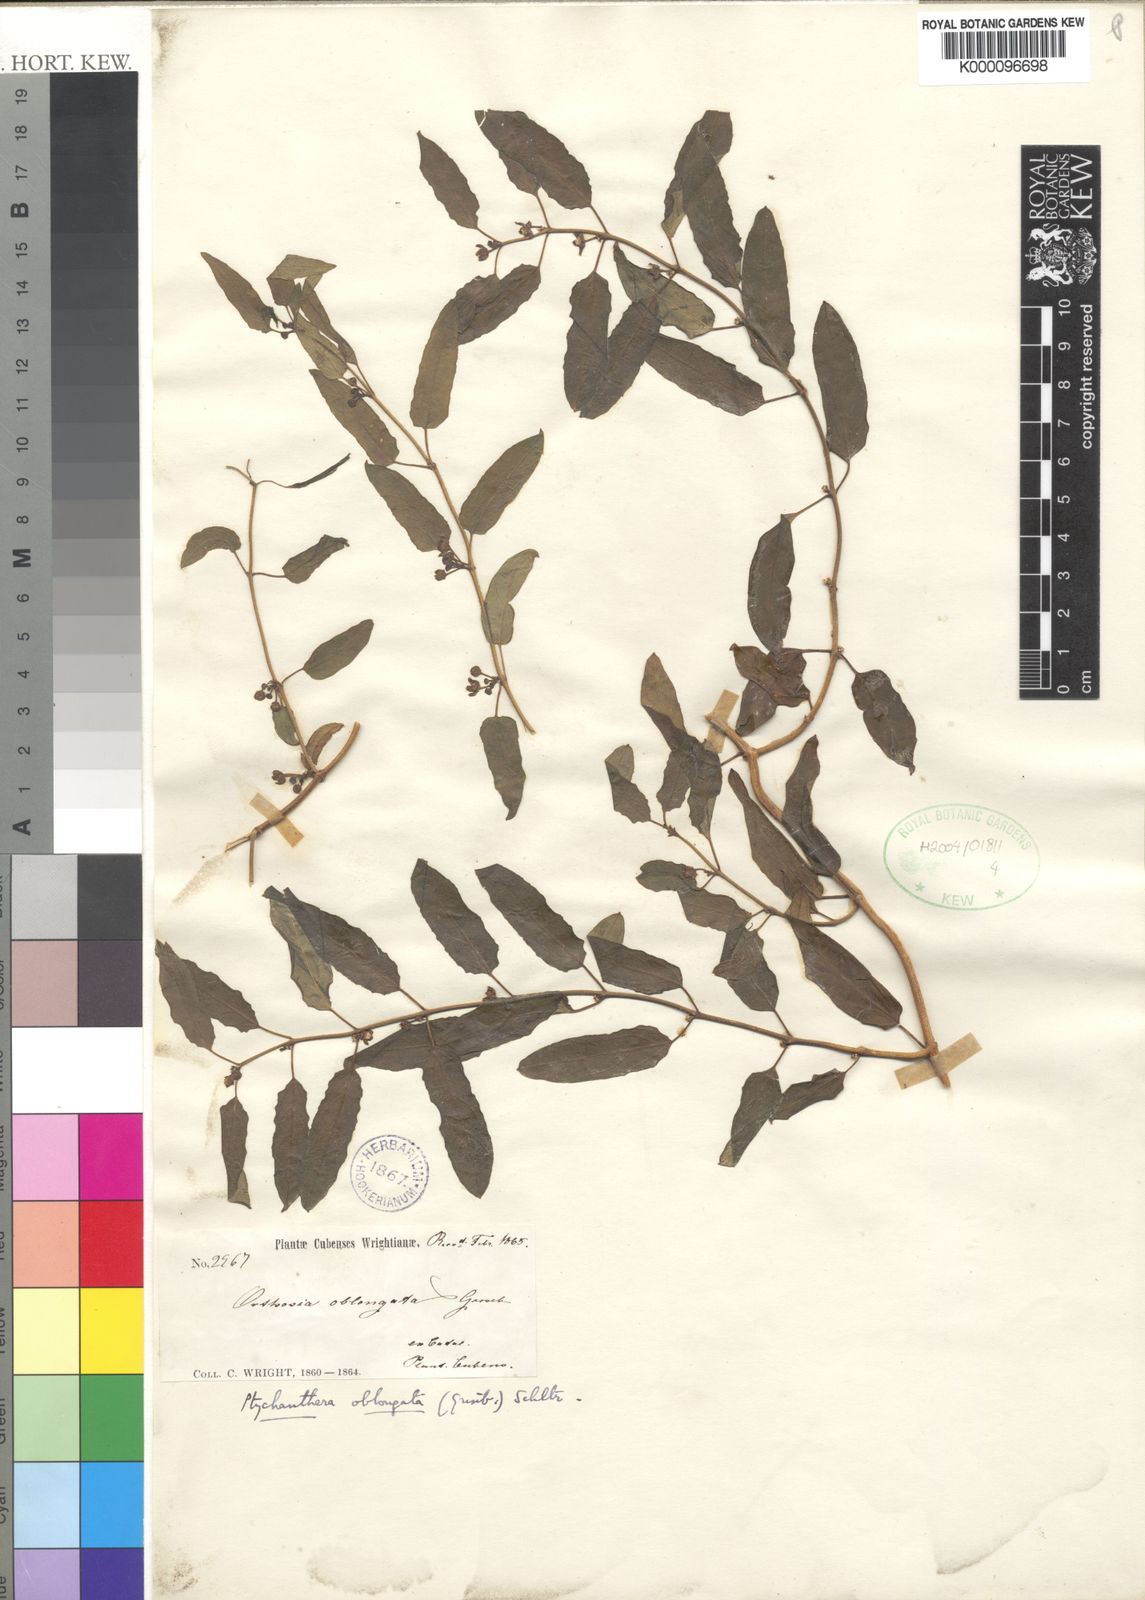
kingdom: Plantae
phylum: Tracheophyta
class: Magnoliopsida
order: Gentianales
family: Apocynaceae
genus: Poicillopsis
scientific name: Poicillopsis oblongata
